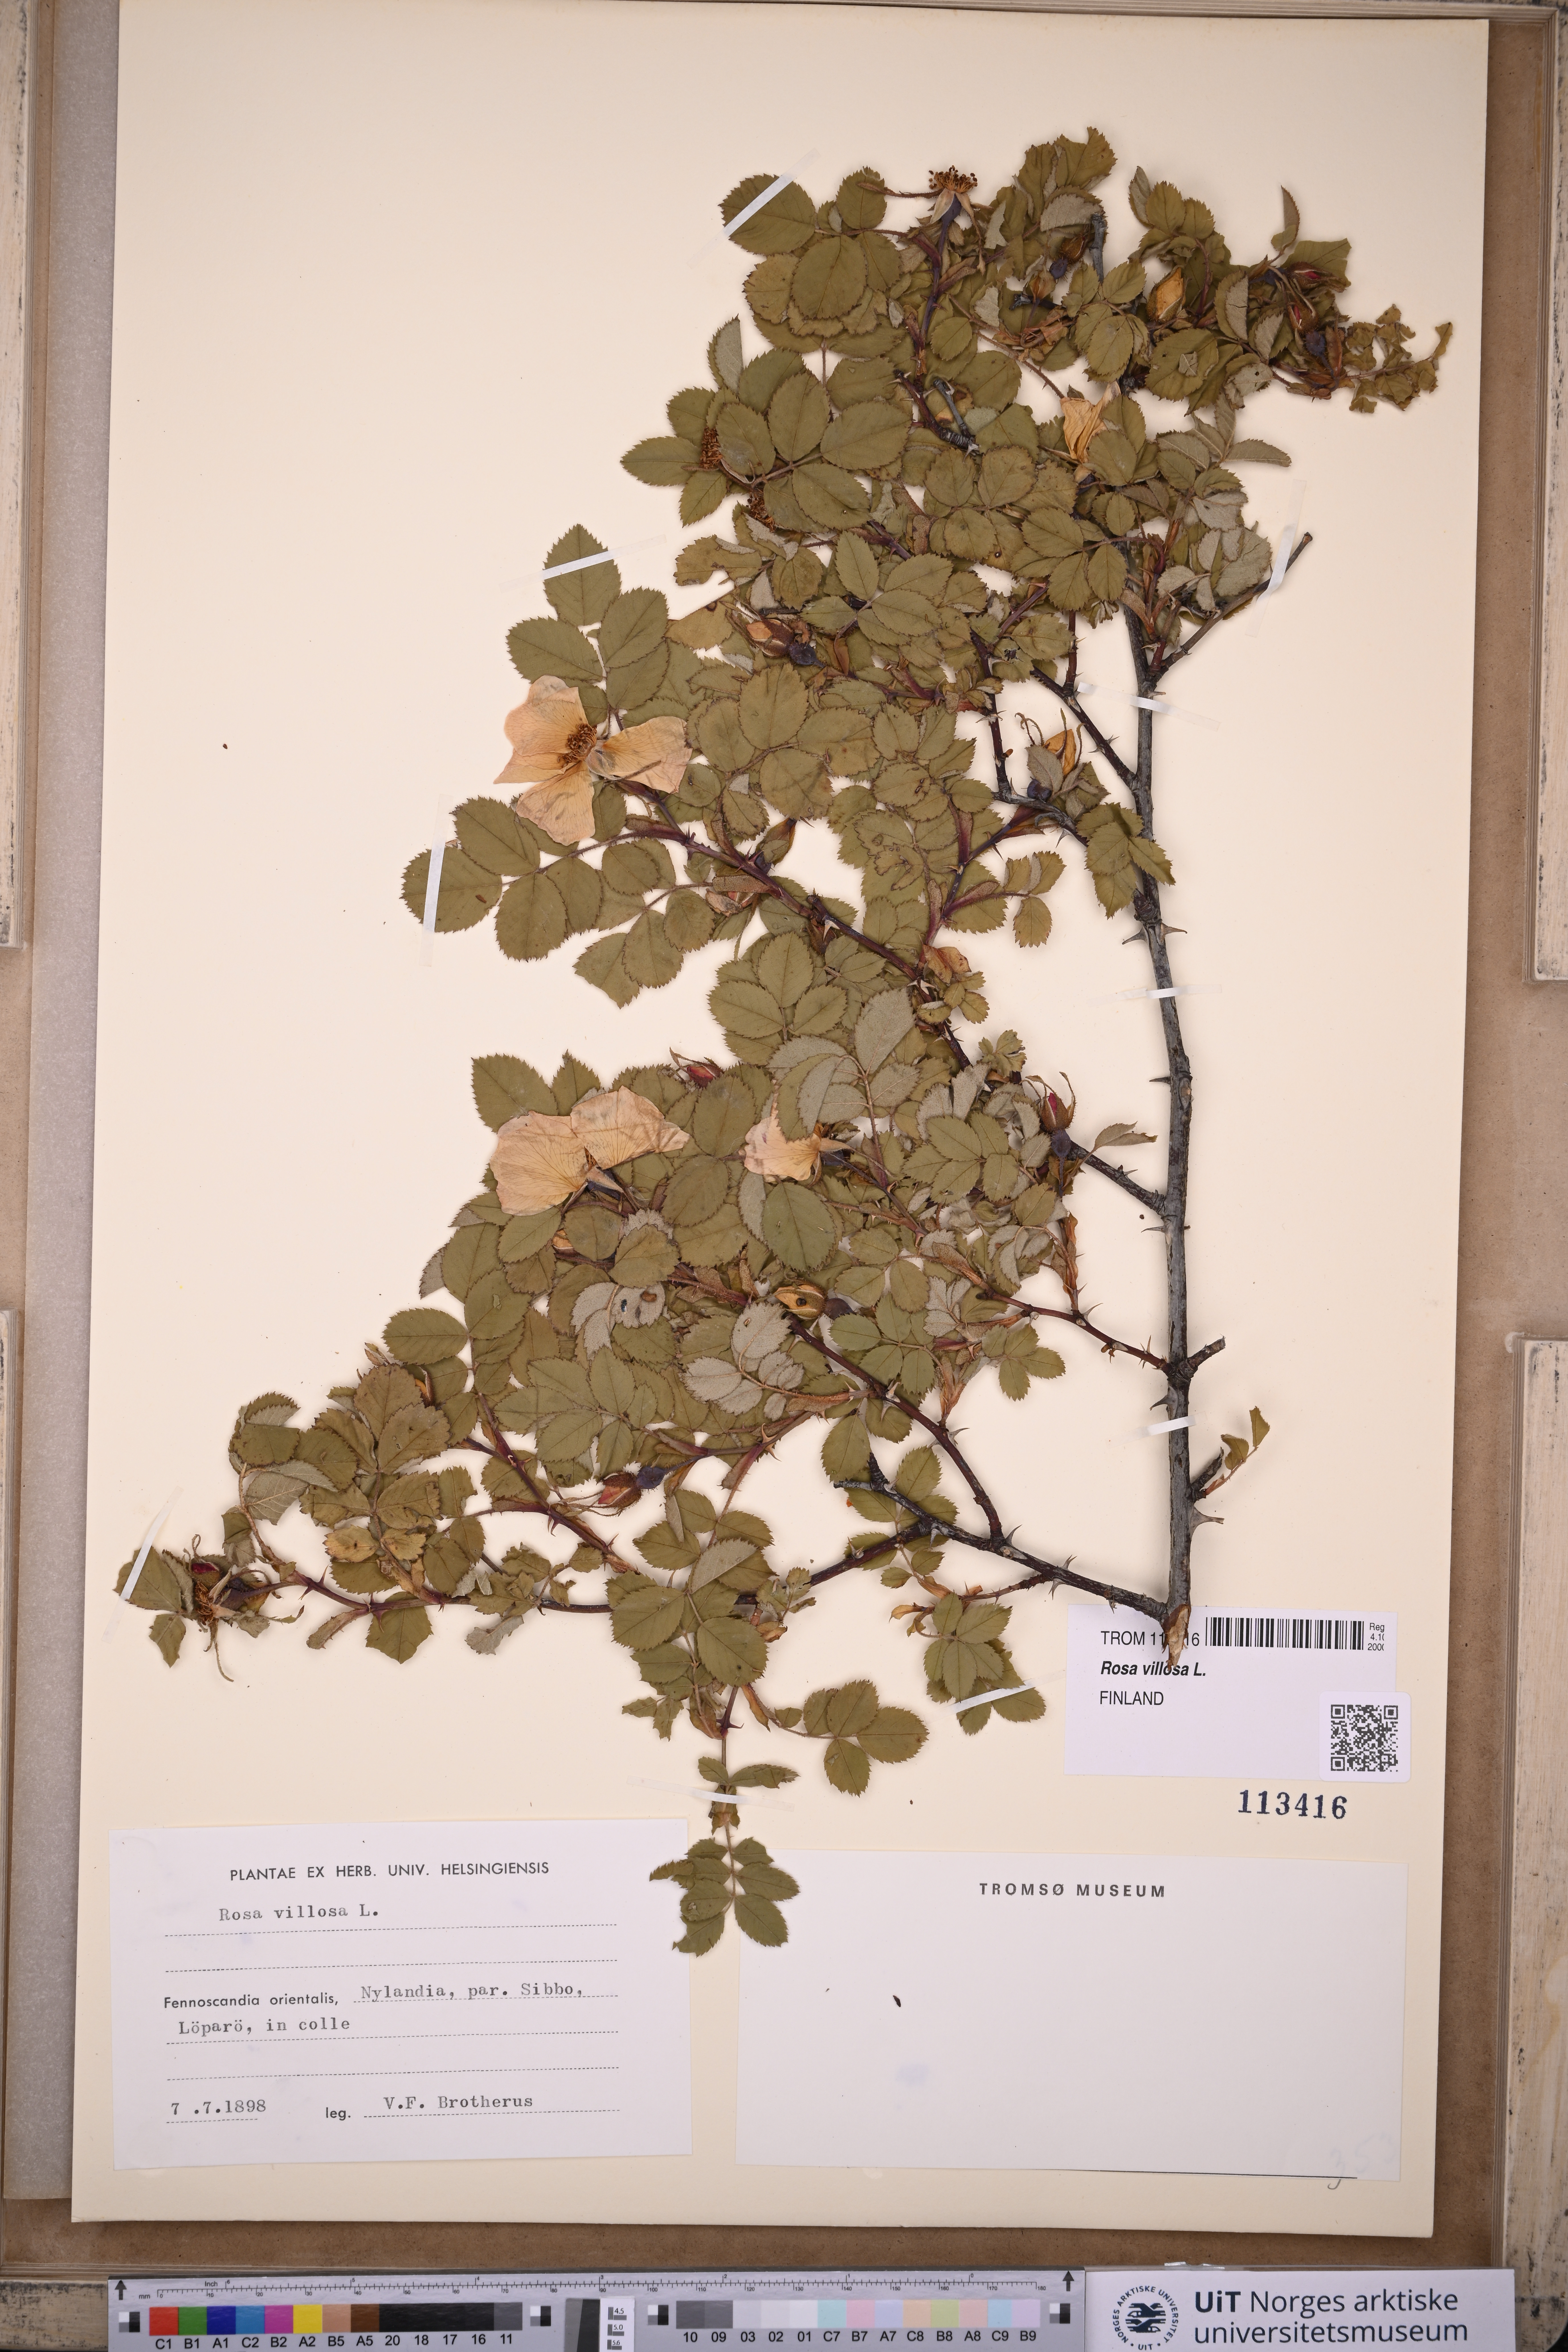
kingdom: Plantae
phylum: Tracheophyta
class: Magnoliopsida
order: Rosales
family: Rosaceae
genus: Rosa
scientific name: Rosa villosa
